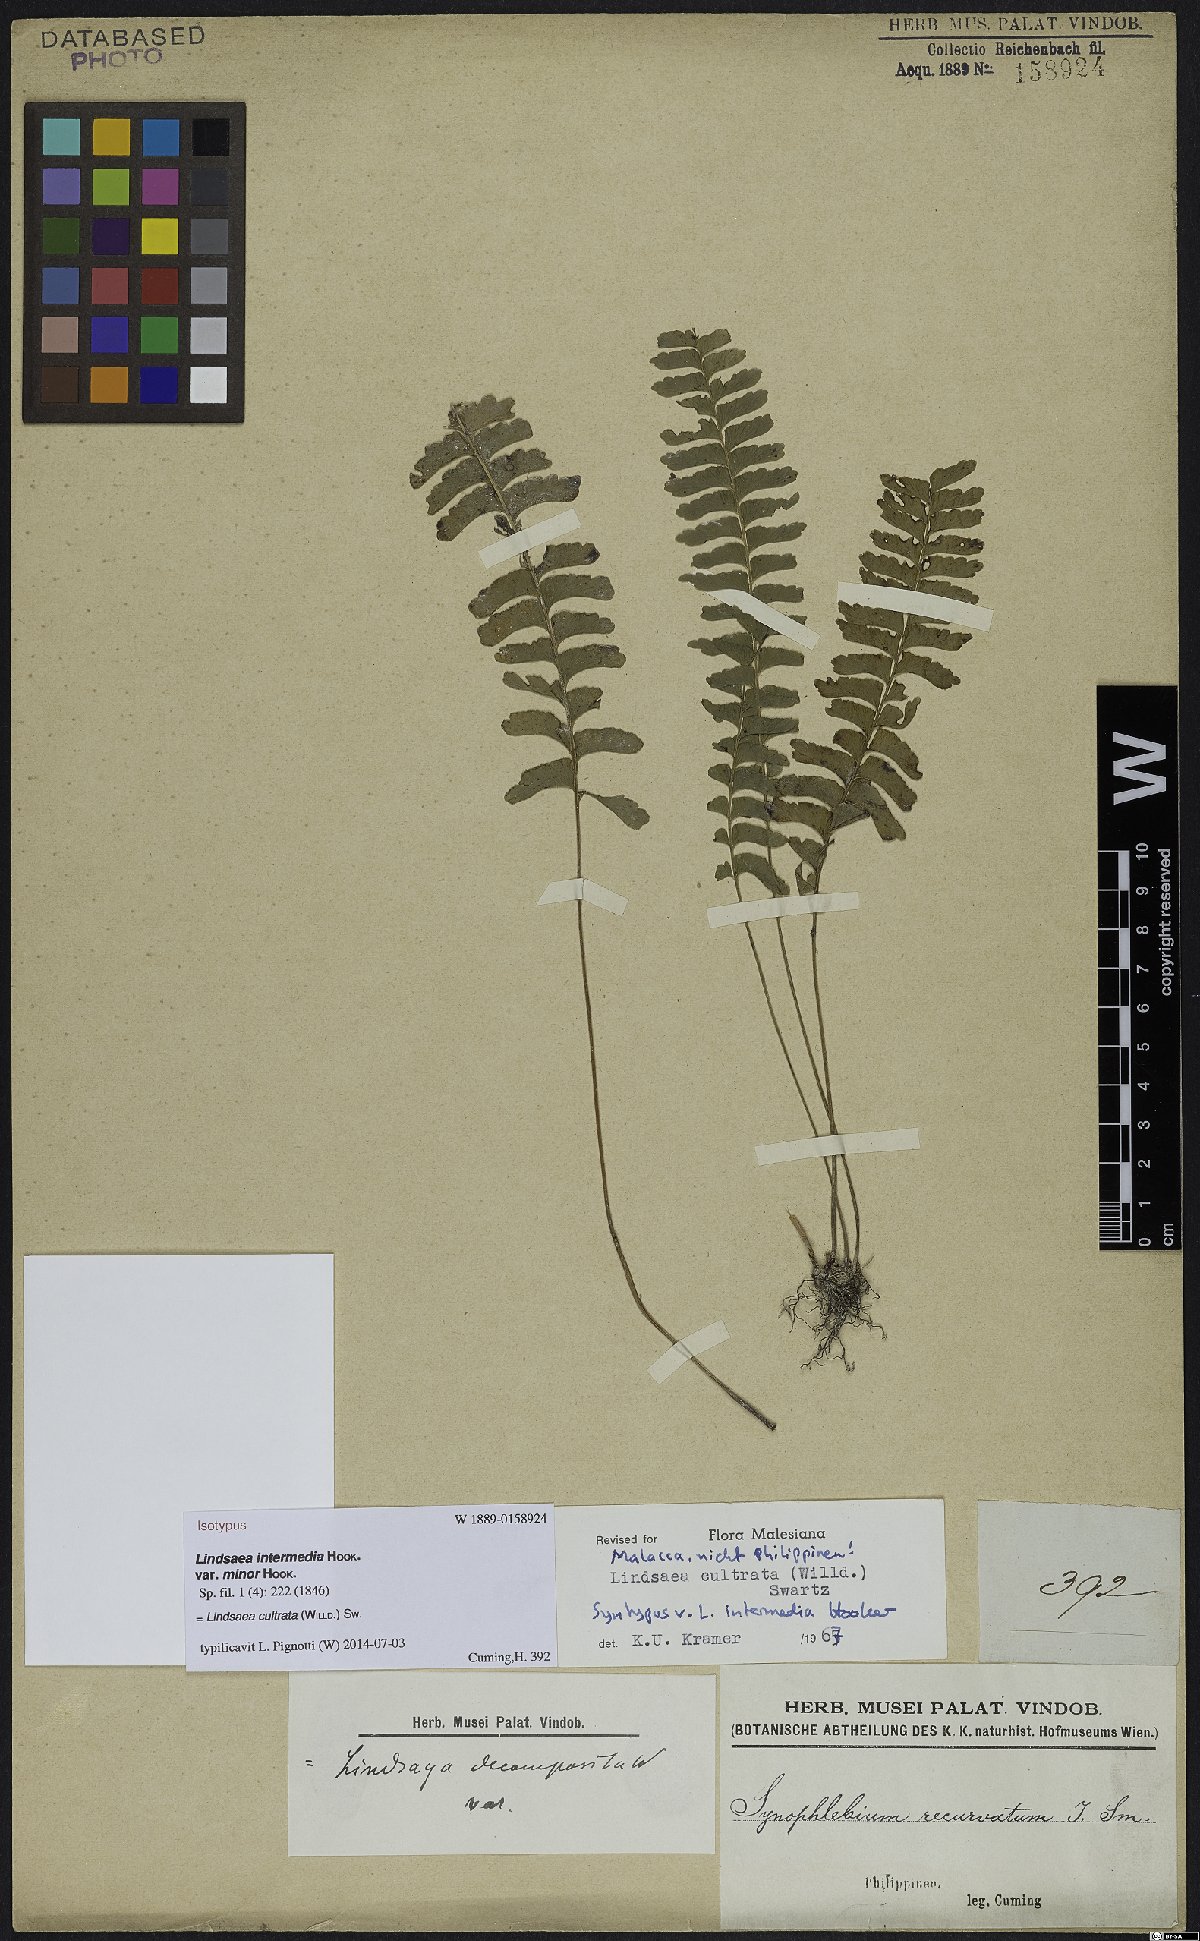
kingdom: Plantae
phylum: Tracheophyta
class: Polypodiopsida
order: Polypodiales
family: Lindsaeaceae
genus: Lindsaea
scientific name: Lindsaea cultrata
